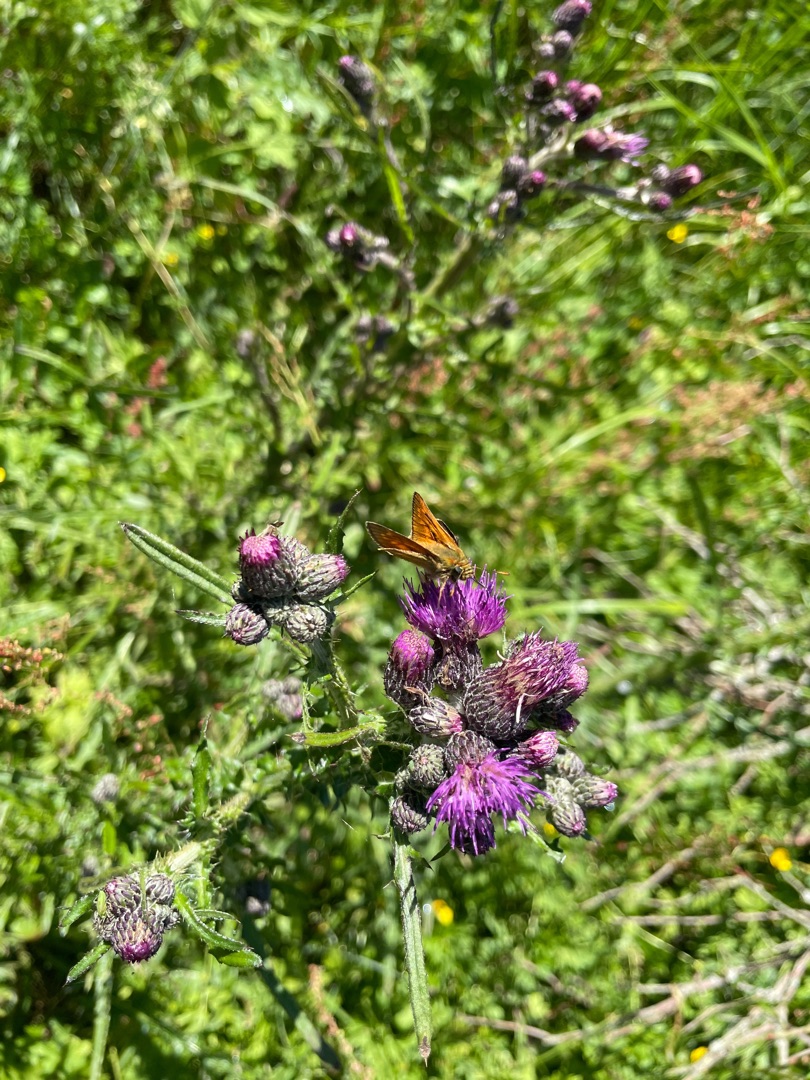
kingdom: Animalia
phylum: Arthropoda
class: Insecta
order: Lepidoptera
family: Hesperiidae
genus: Ochlodes
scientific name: Ochlodes venata
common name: Stor bredpande
